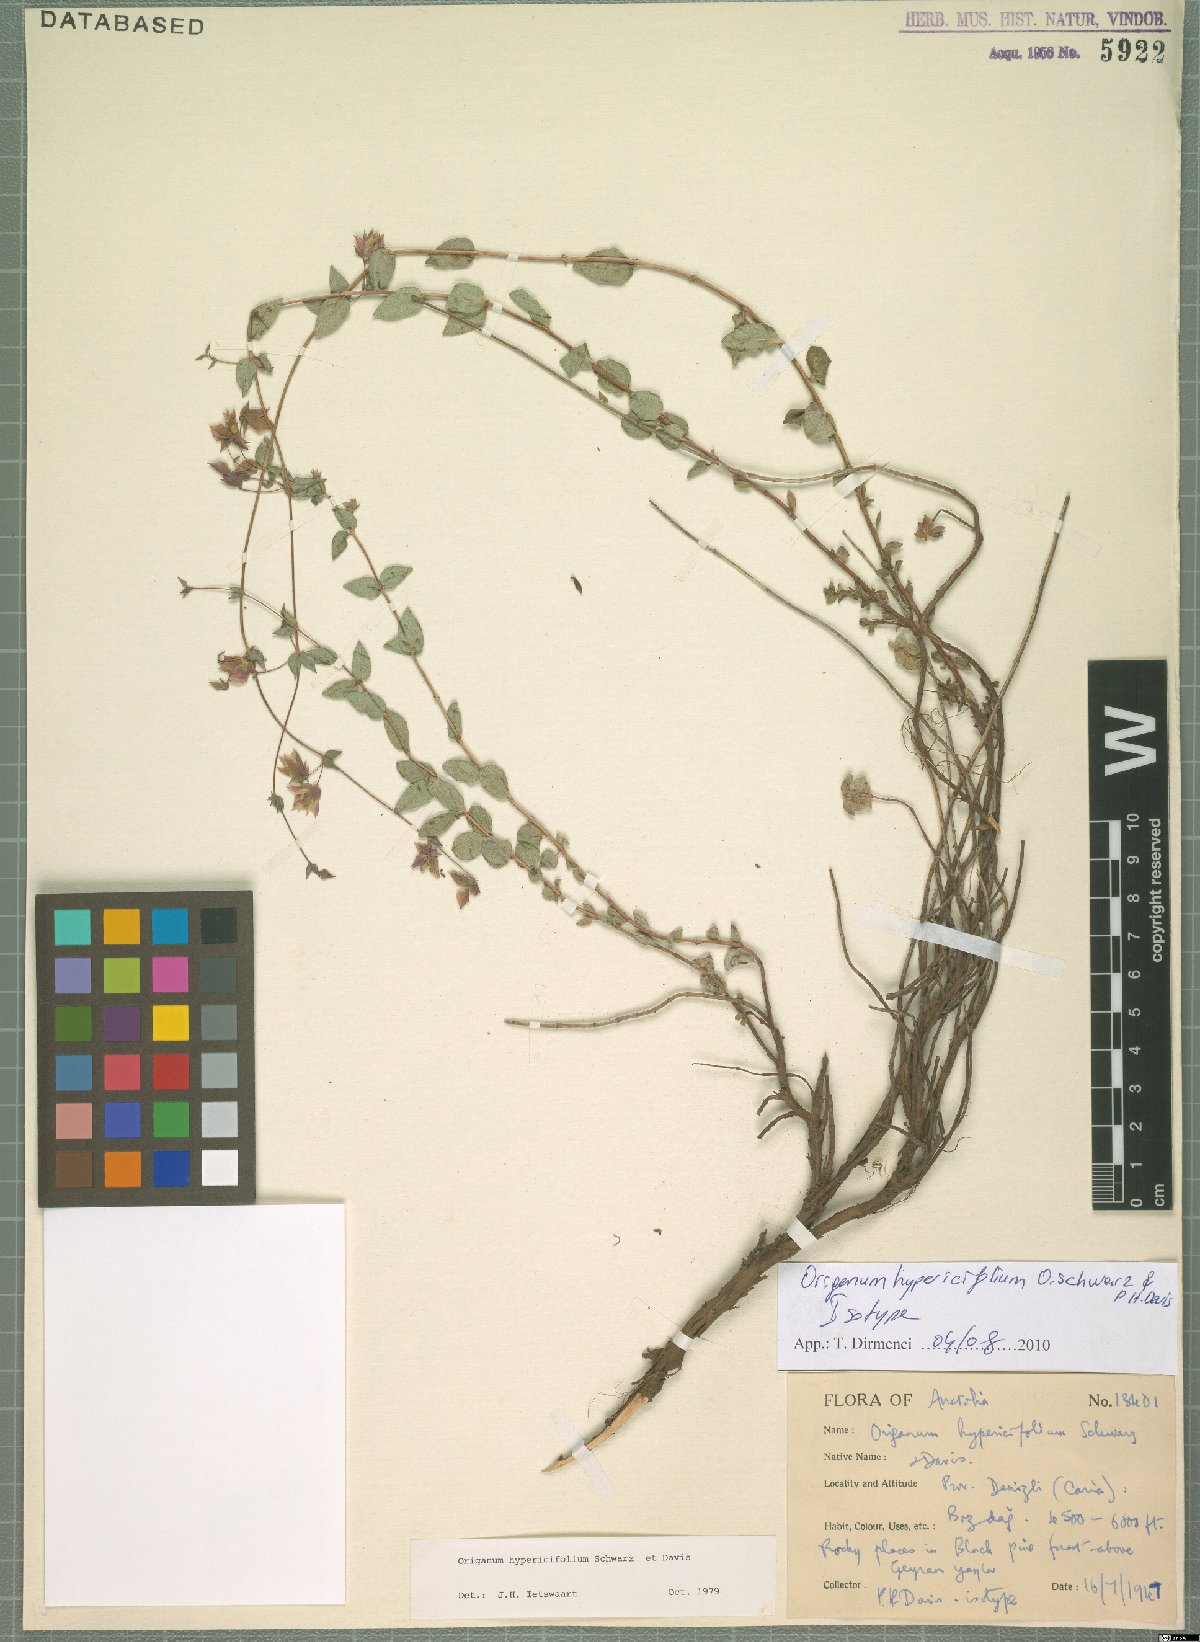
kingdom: Plantae
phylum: Tracheophyta
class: Magnoliopsida
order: Lamiales
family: Lamiaceae
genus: Origanum
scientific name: Origanum hypericifolium
